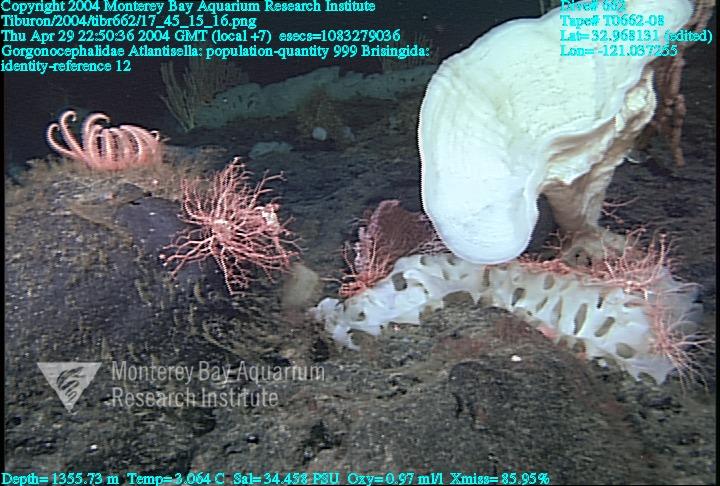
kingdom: Animalia
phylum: Porifera
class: Hexactinellida
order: Lyssacinosida
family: Euplectellidae
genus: Atlantisella
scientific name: Atlantisella
